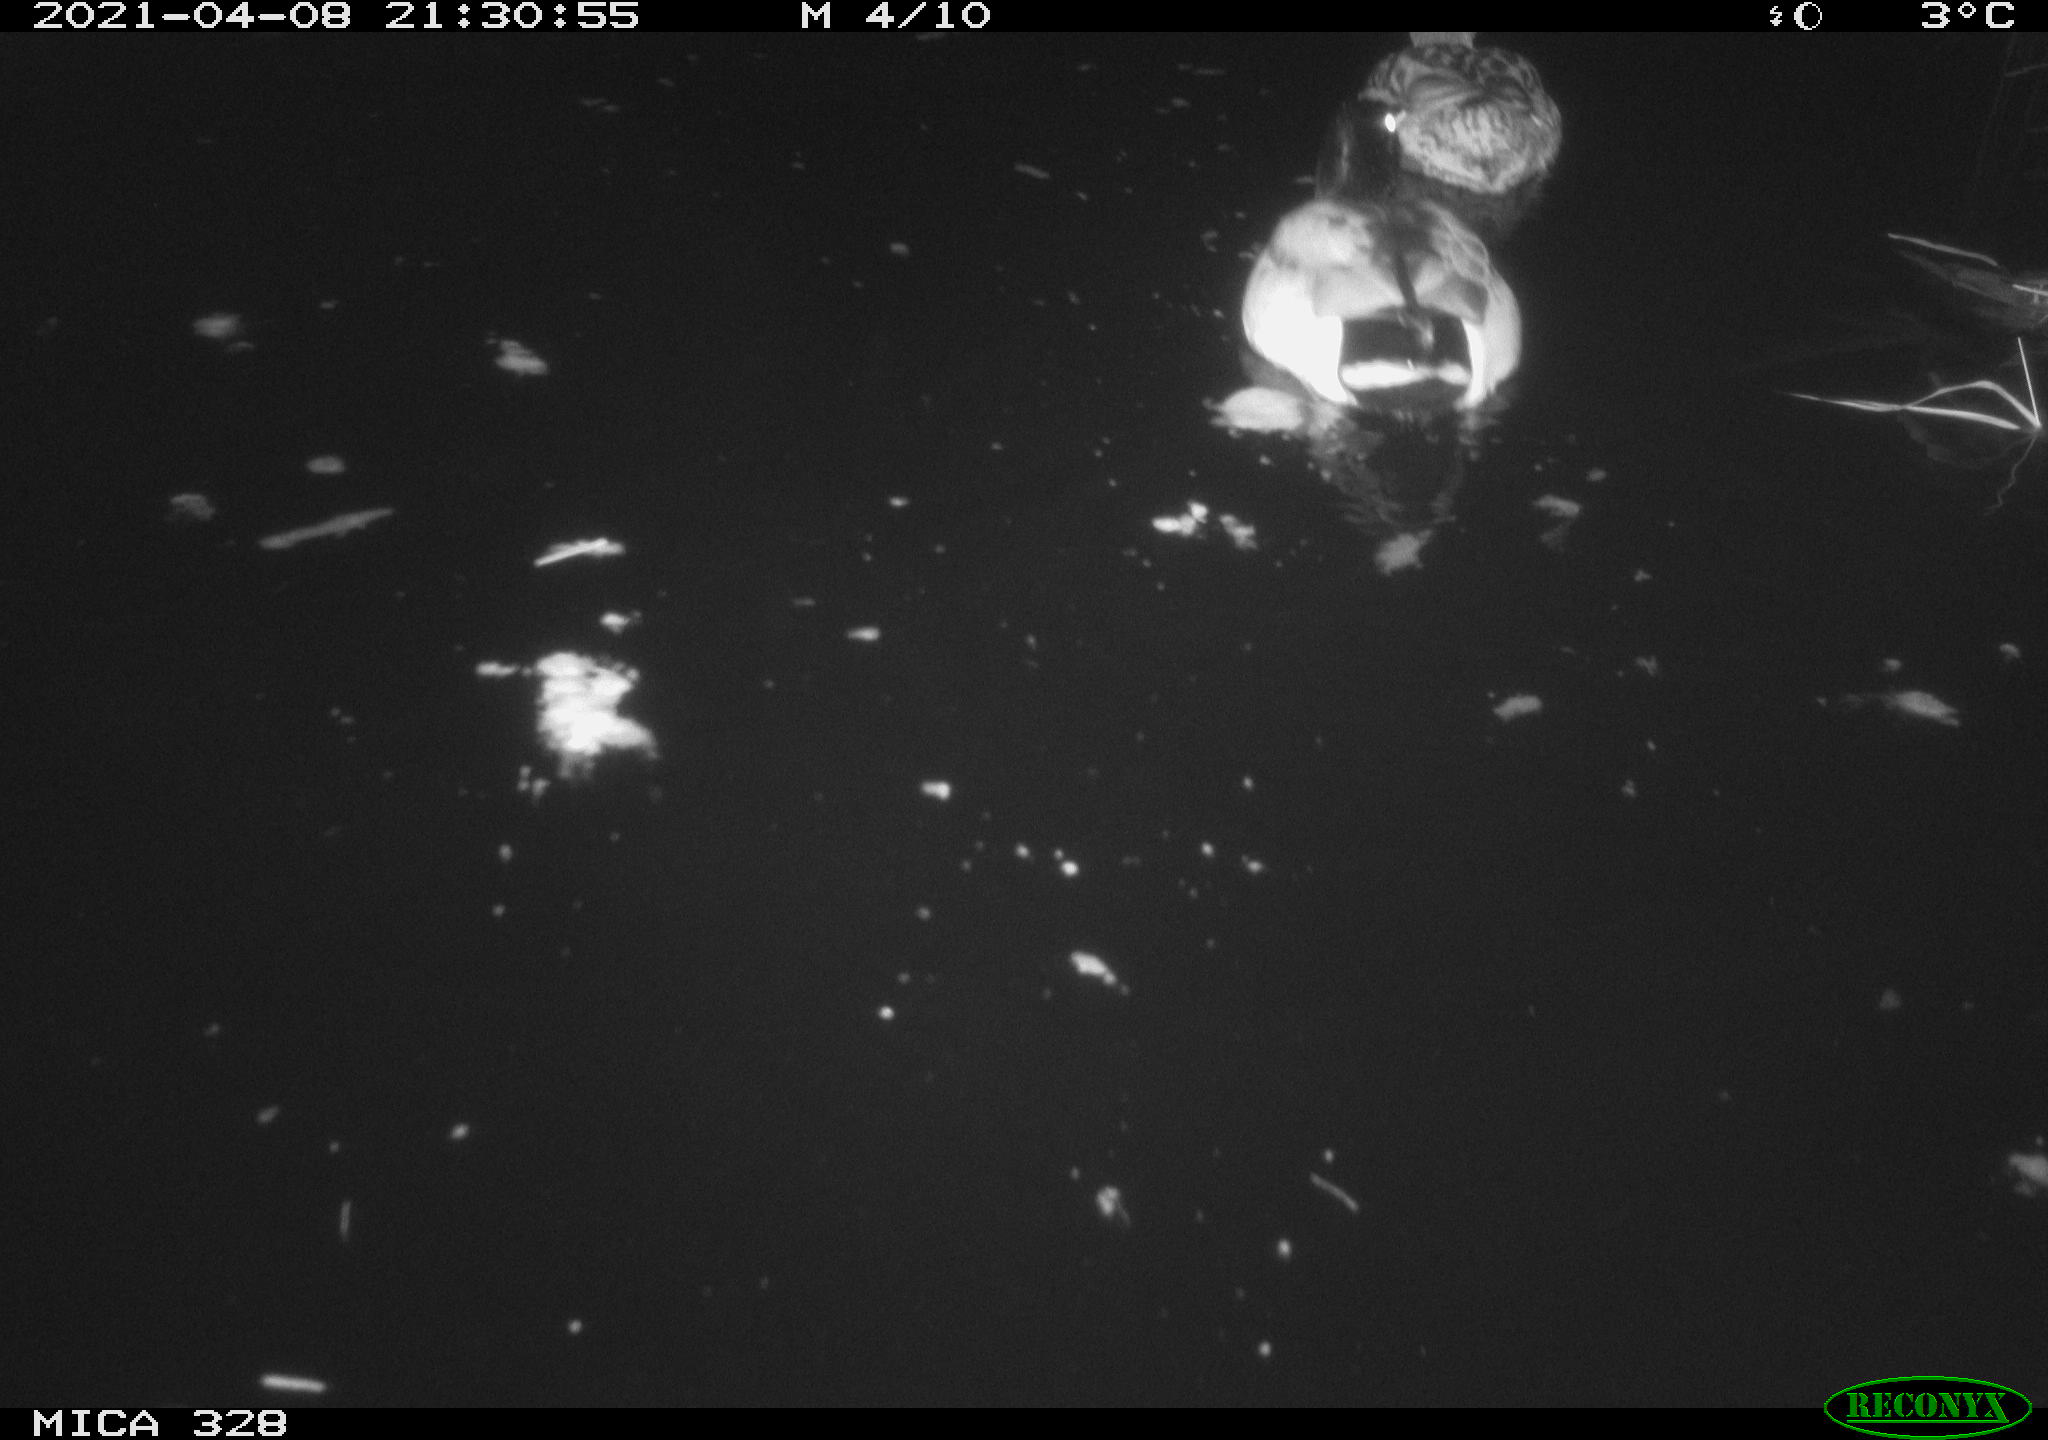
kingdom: Animalia
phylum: Chordata
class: Aves
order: Anseriformes
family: Anatidae
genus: Anas
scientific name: Anas platyrhynchos
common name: Mallard
